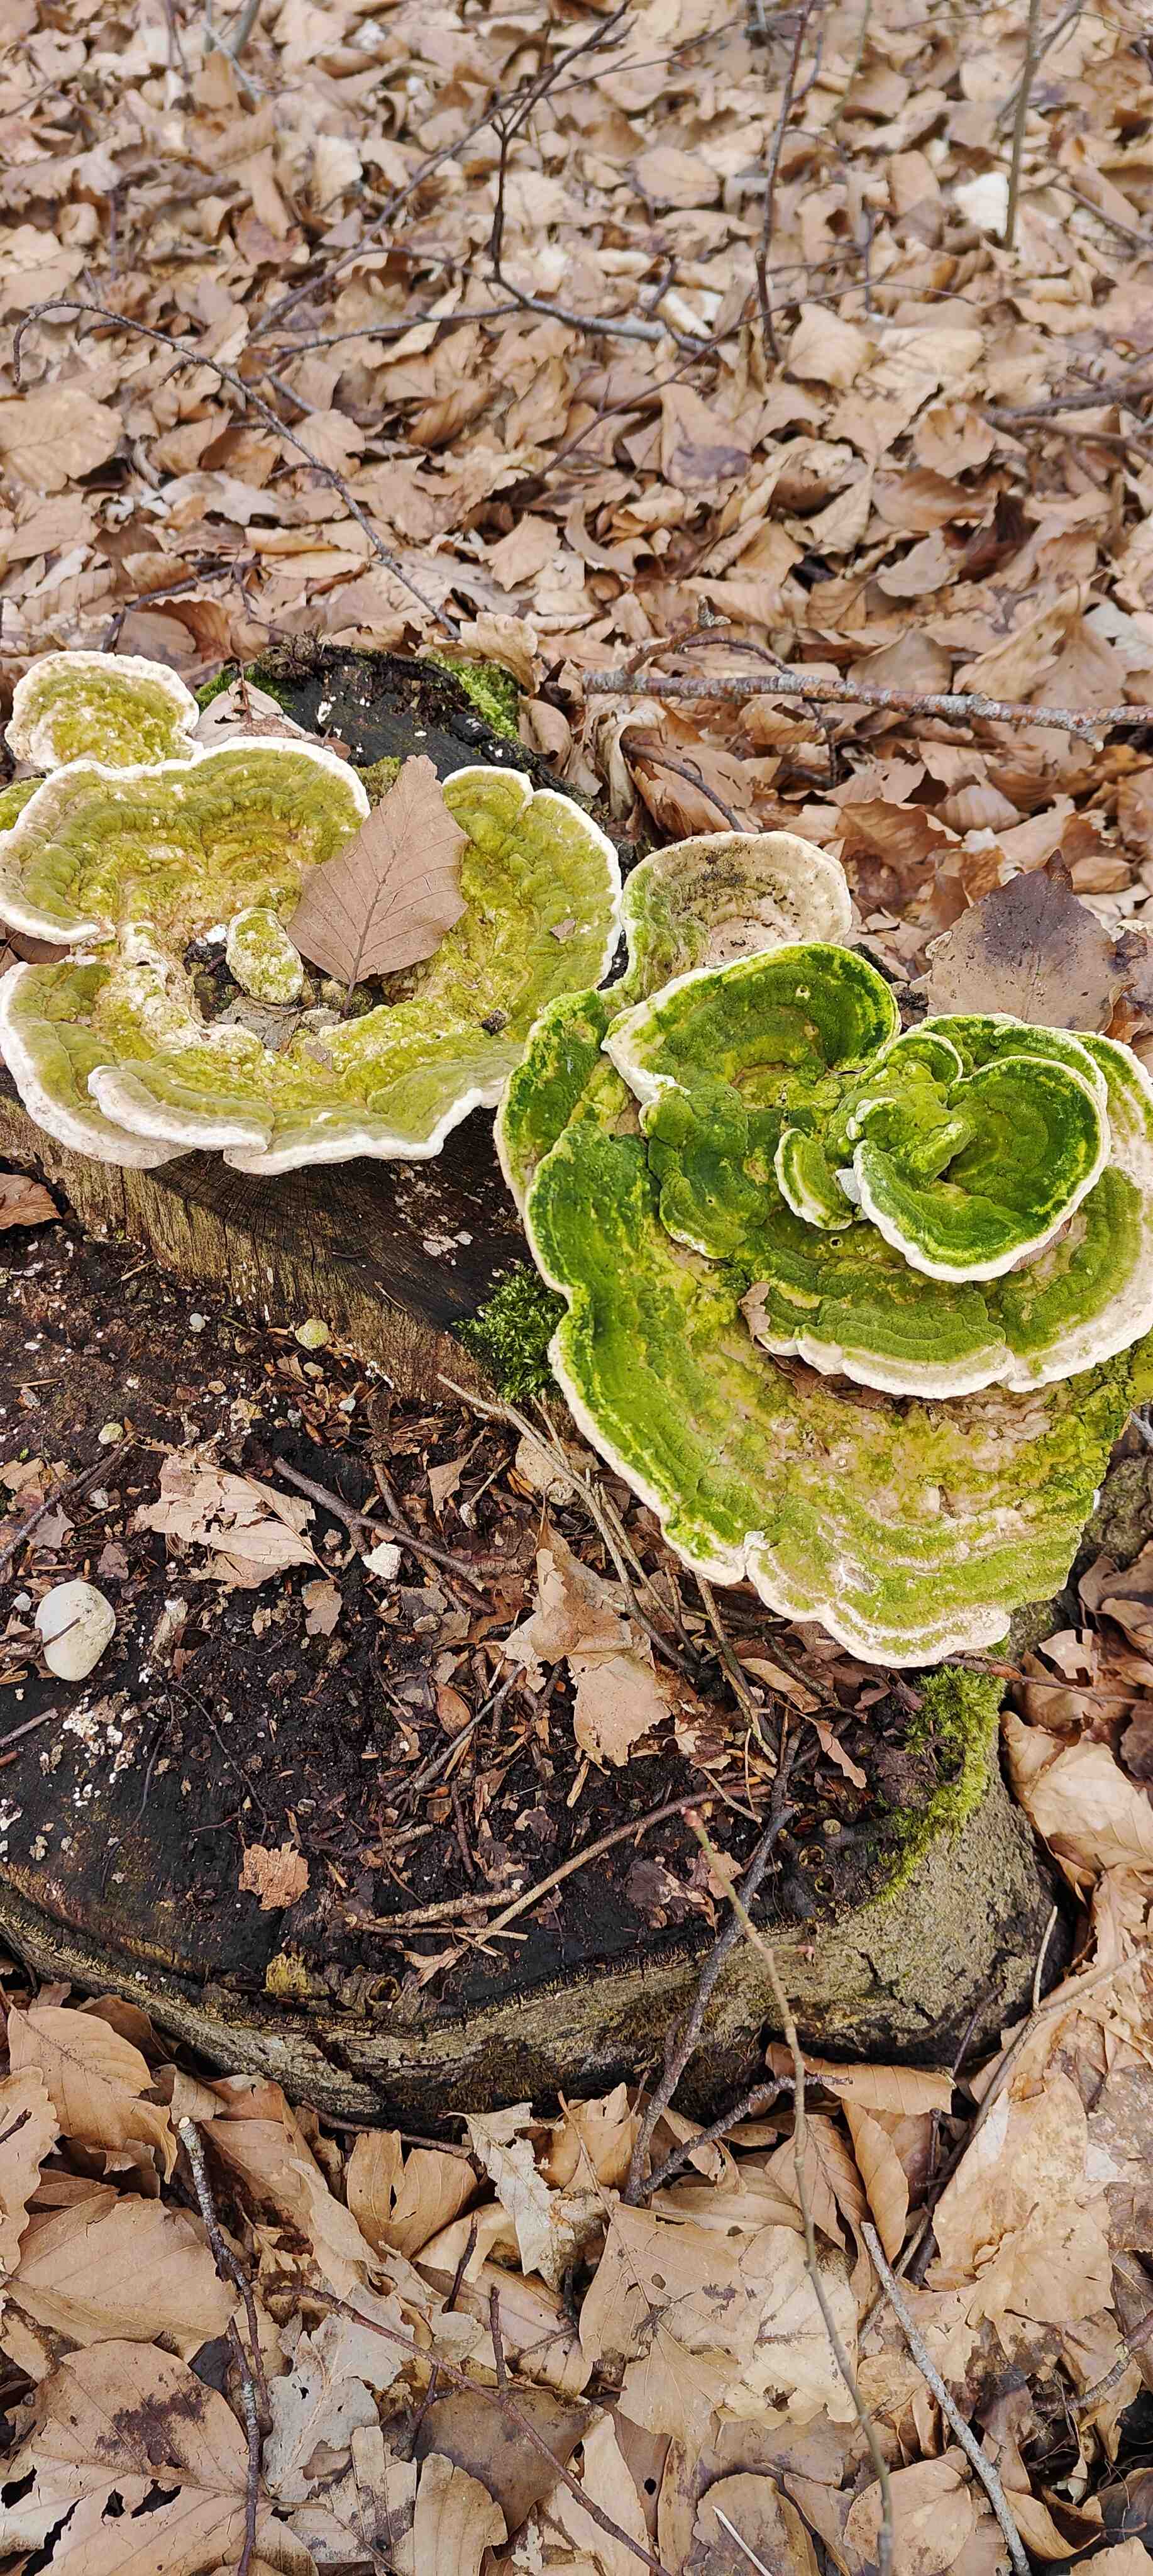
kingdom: Fungi
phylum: Basidiomycota
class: Agaricomycetes
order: Polyporales
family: Polyporaceae
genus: Trametes
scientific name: Trametes gibbosa
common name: puklet læderporesvamp
